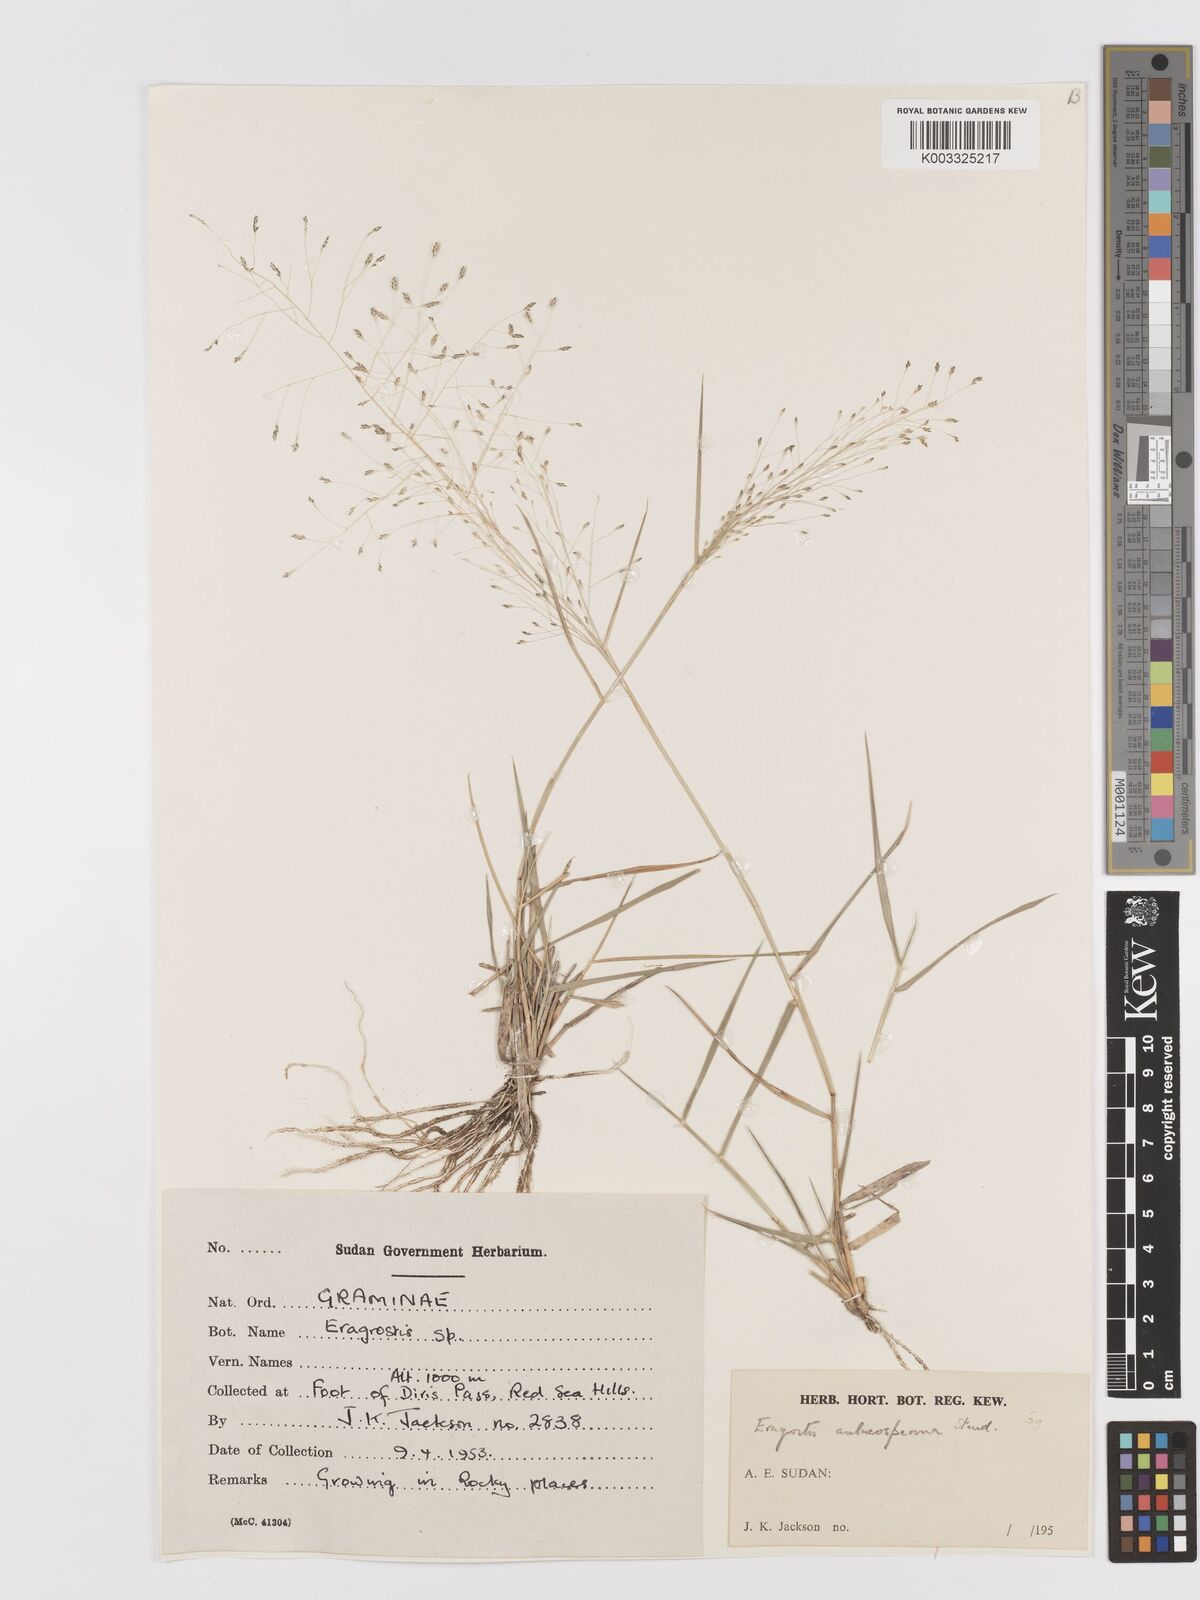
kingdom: Plantae
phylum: Tracheophyta
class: Liliopsida
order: Poales
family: Poaceae
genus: Eragrostis
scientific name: Eragrostis papposa
